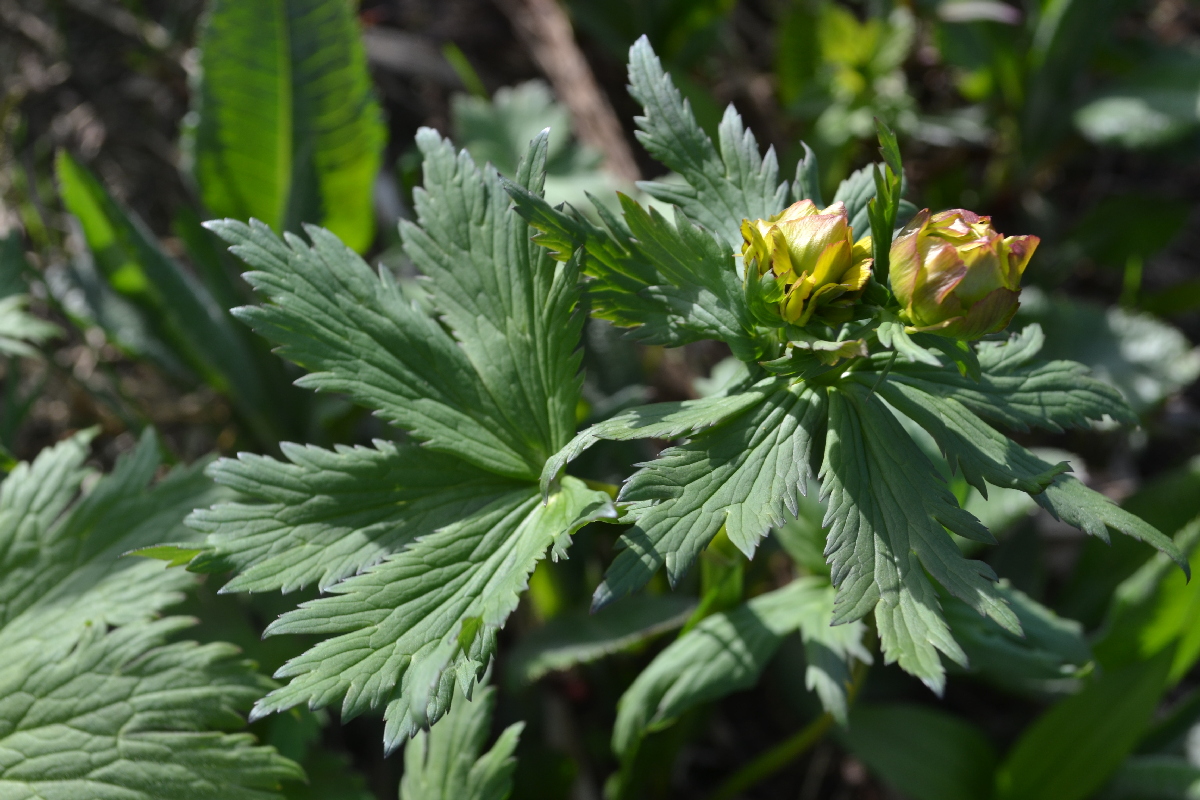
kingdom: Plantae
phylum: Tracheophyta
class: Magnoliopsida
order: Ranunculales
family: Ranunculaceae
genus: Trollius
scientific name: Trollius apertus
